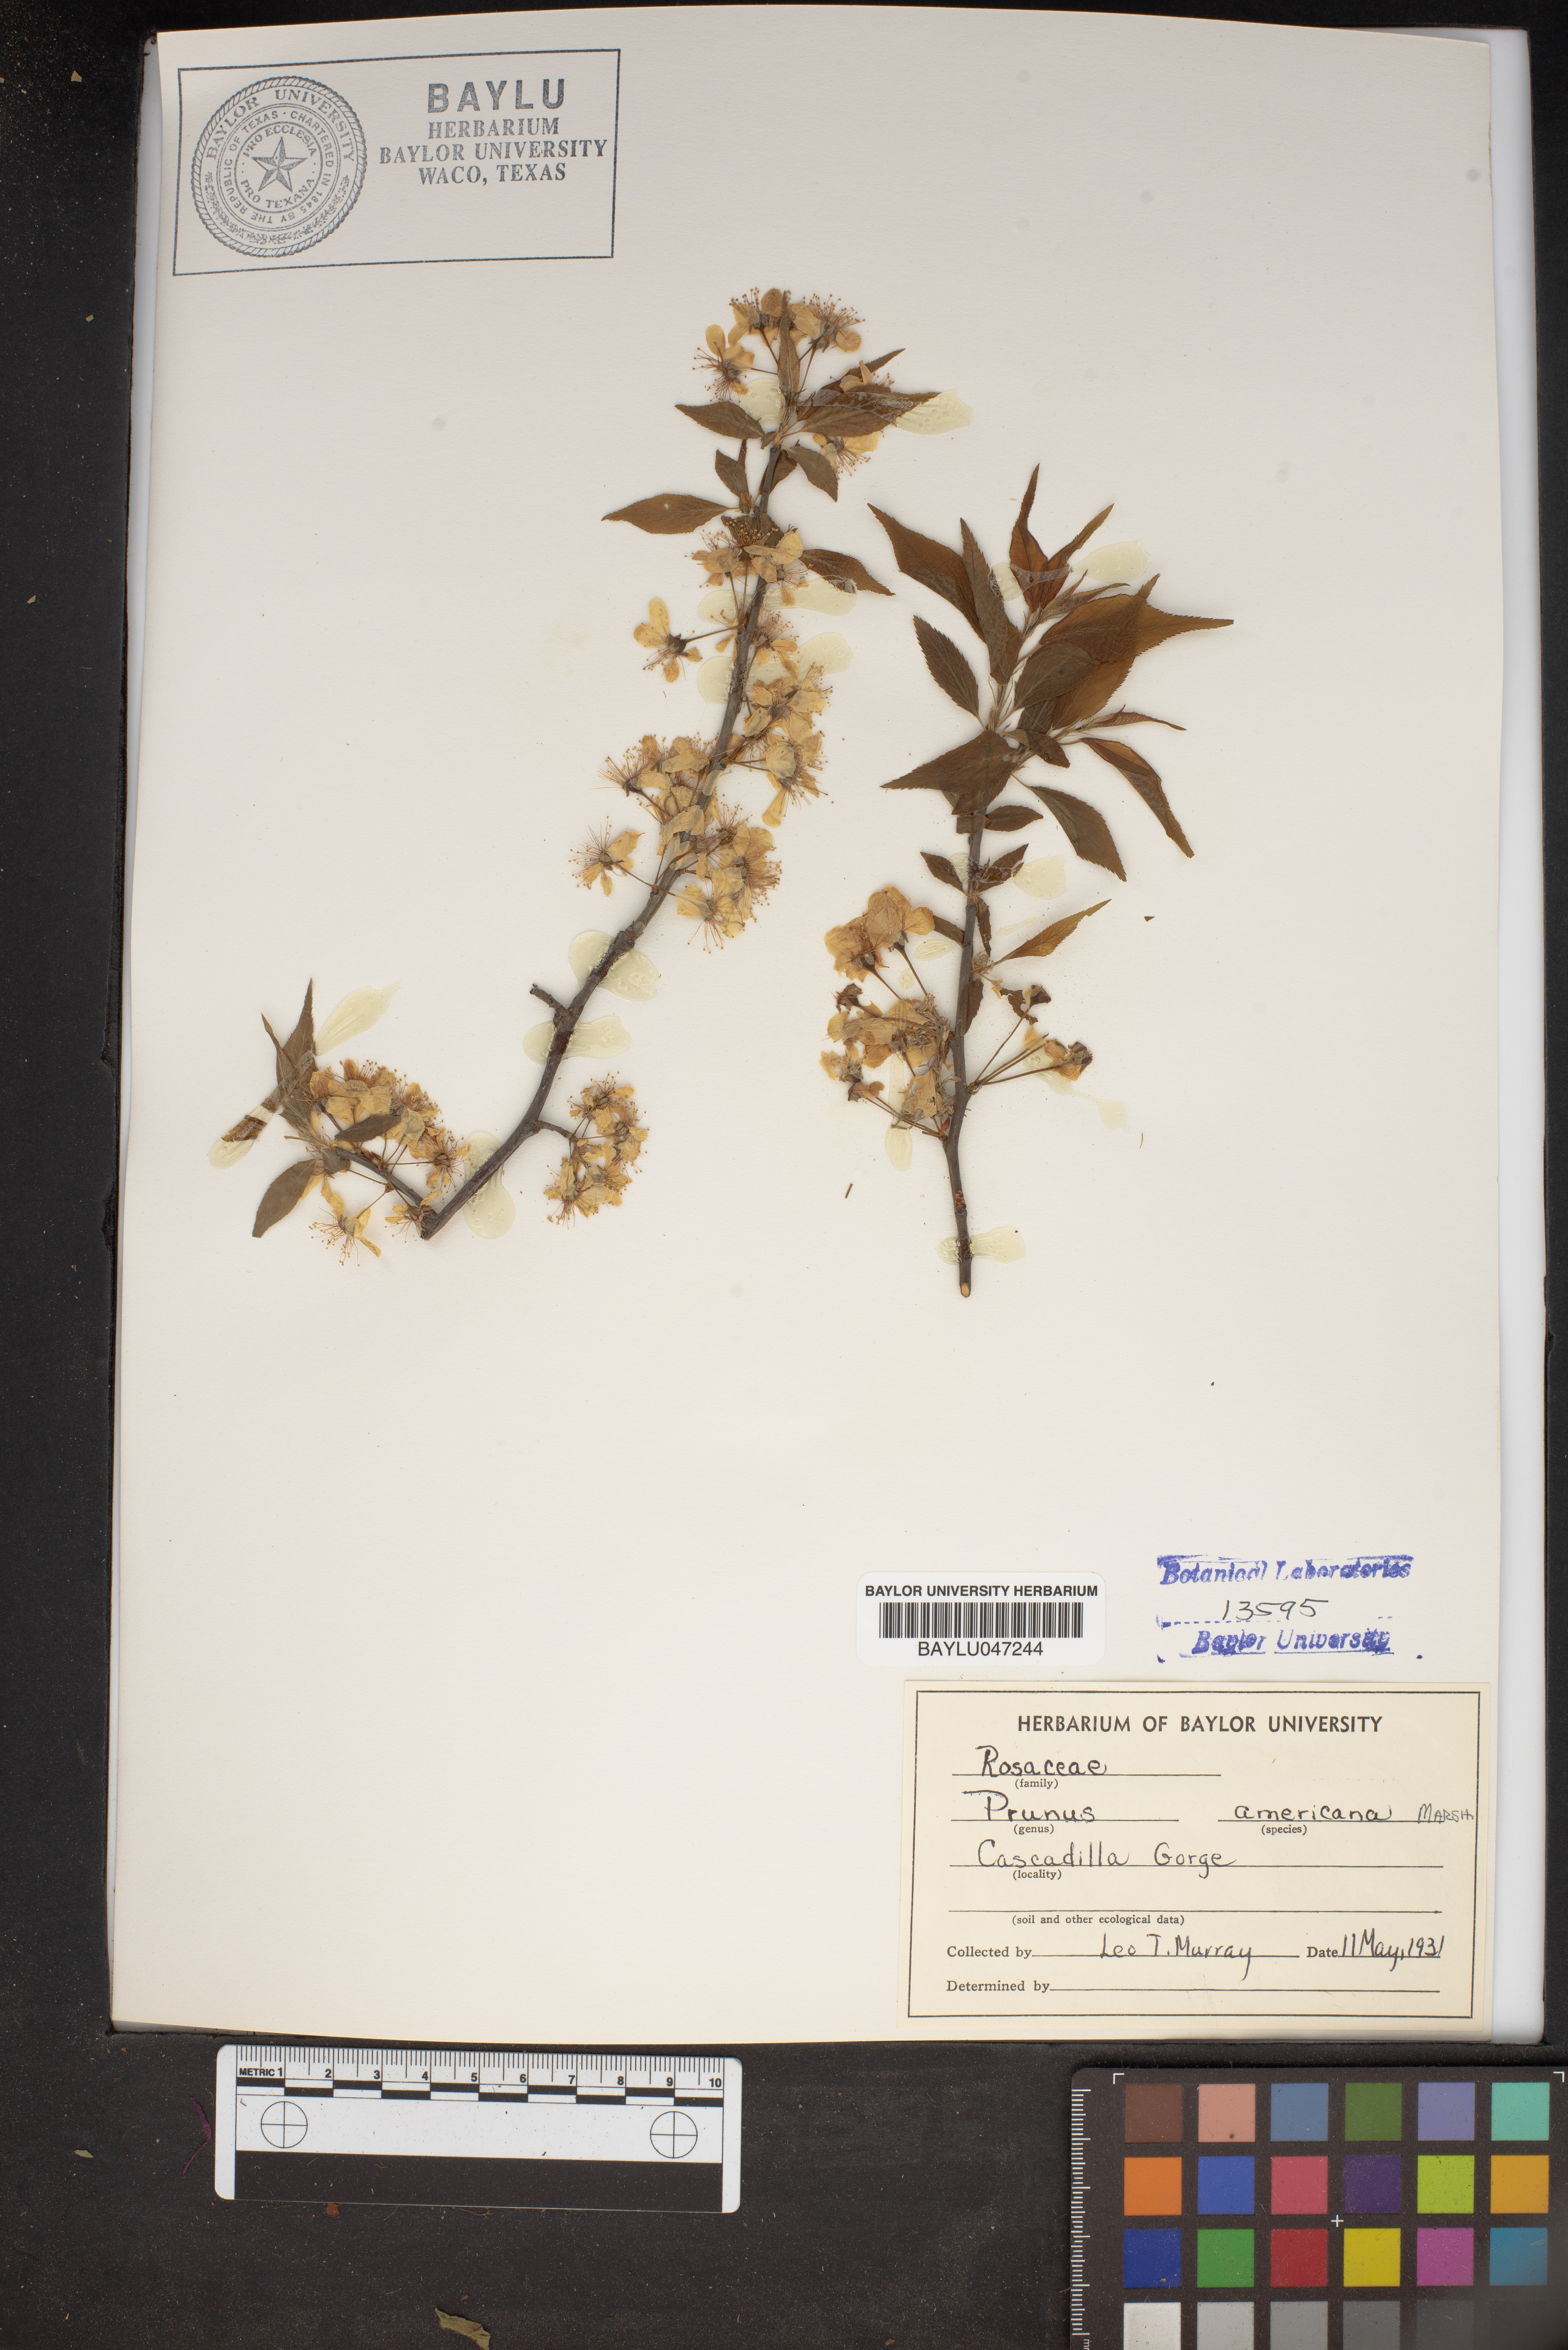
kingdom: Plantae
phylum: Tracheophyta
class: Magnoliopsida
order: Rosales
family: Rosaceae
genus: Prunus
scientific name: Prunus americana
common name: American plum
